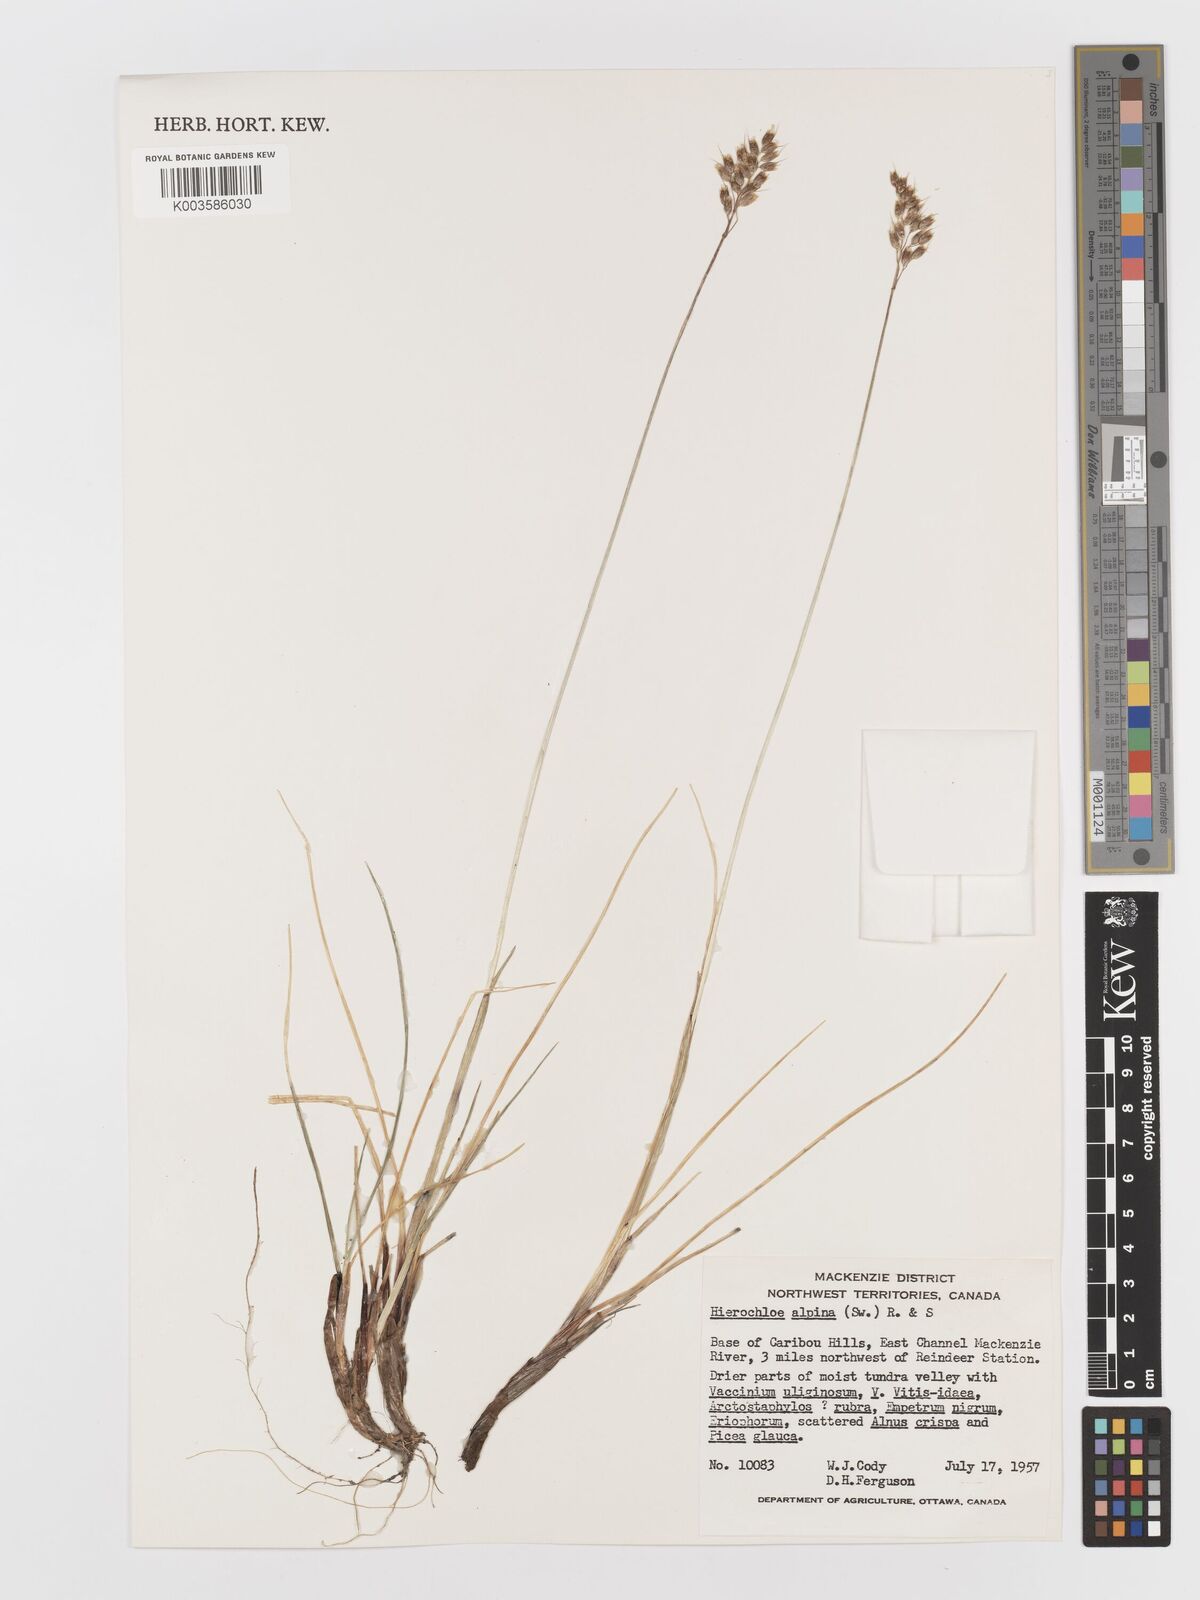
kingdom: Plantae
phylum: Tracheophyta
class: Liliopsida
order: Poales
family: Poaceae
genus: Anthoxanthum
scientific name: Anthoxanthum monticola
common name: Alpine sweetgrass
